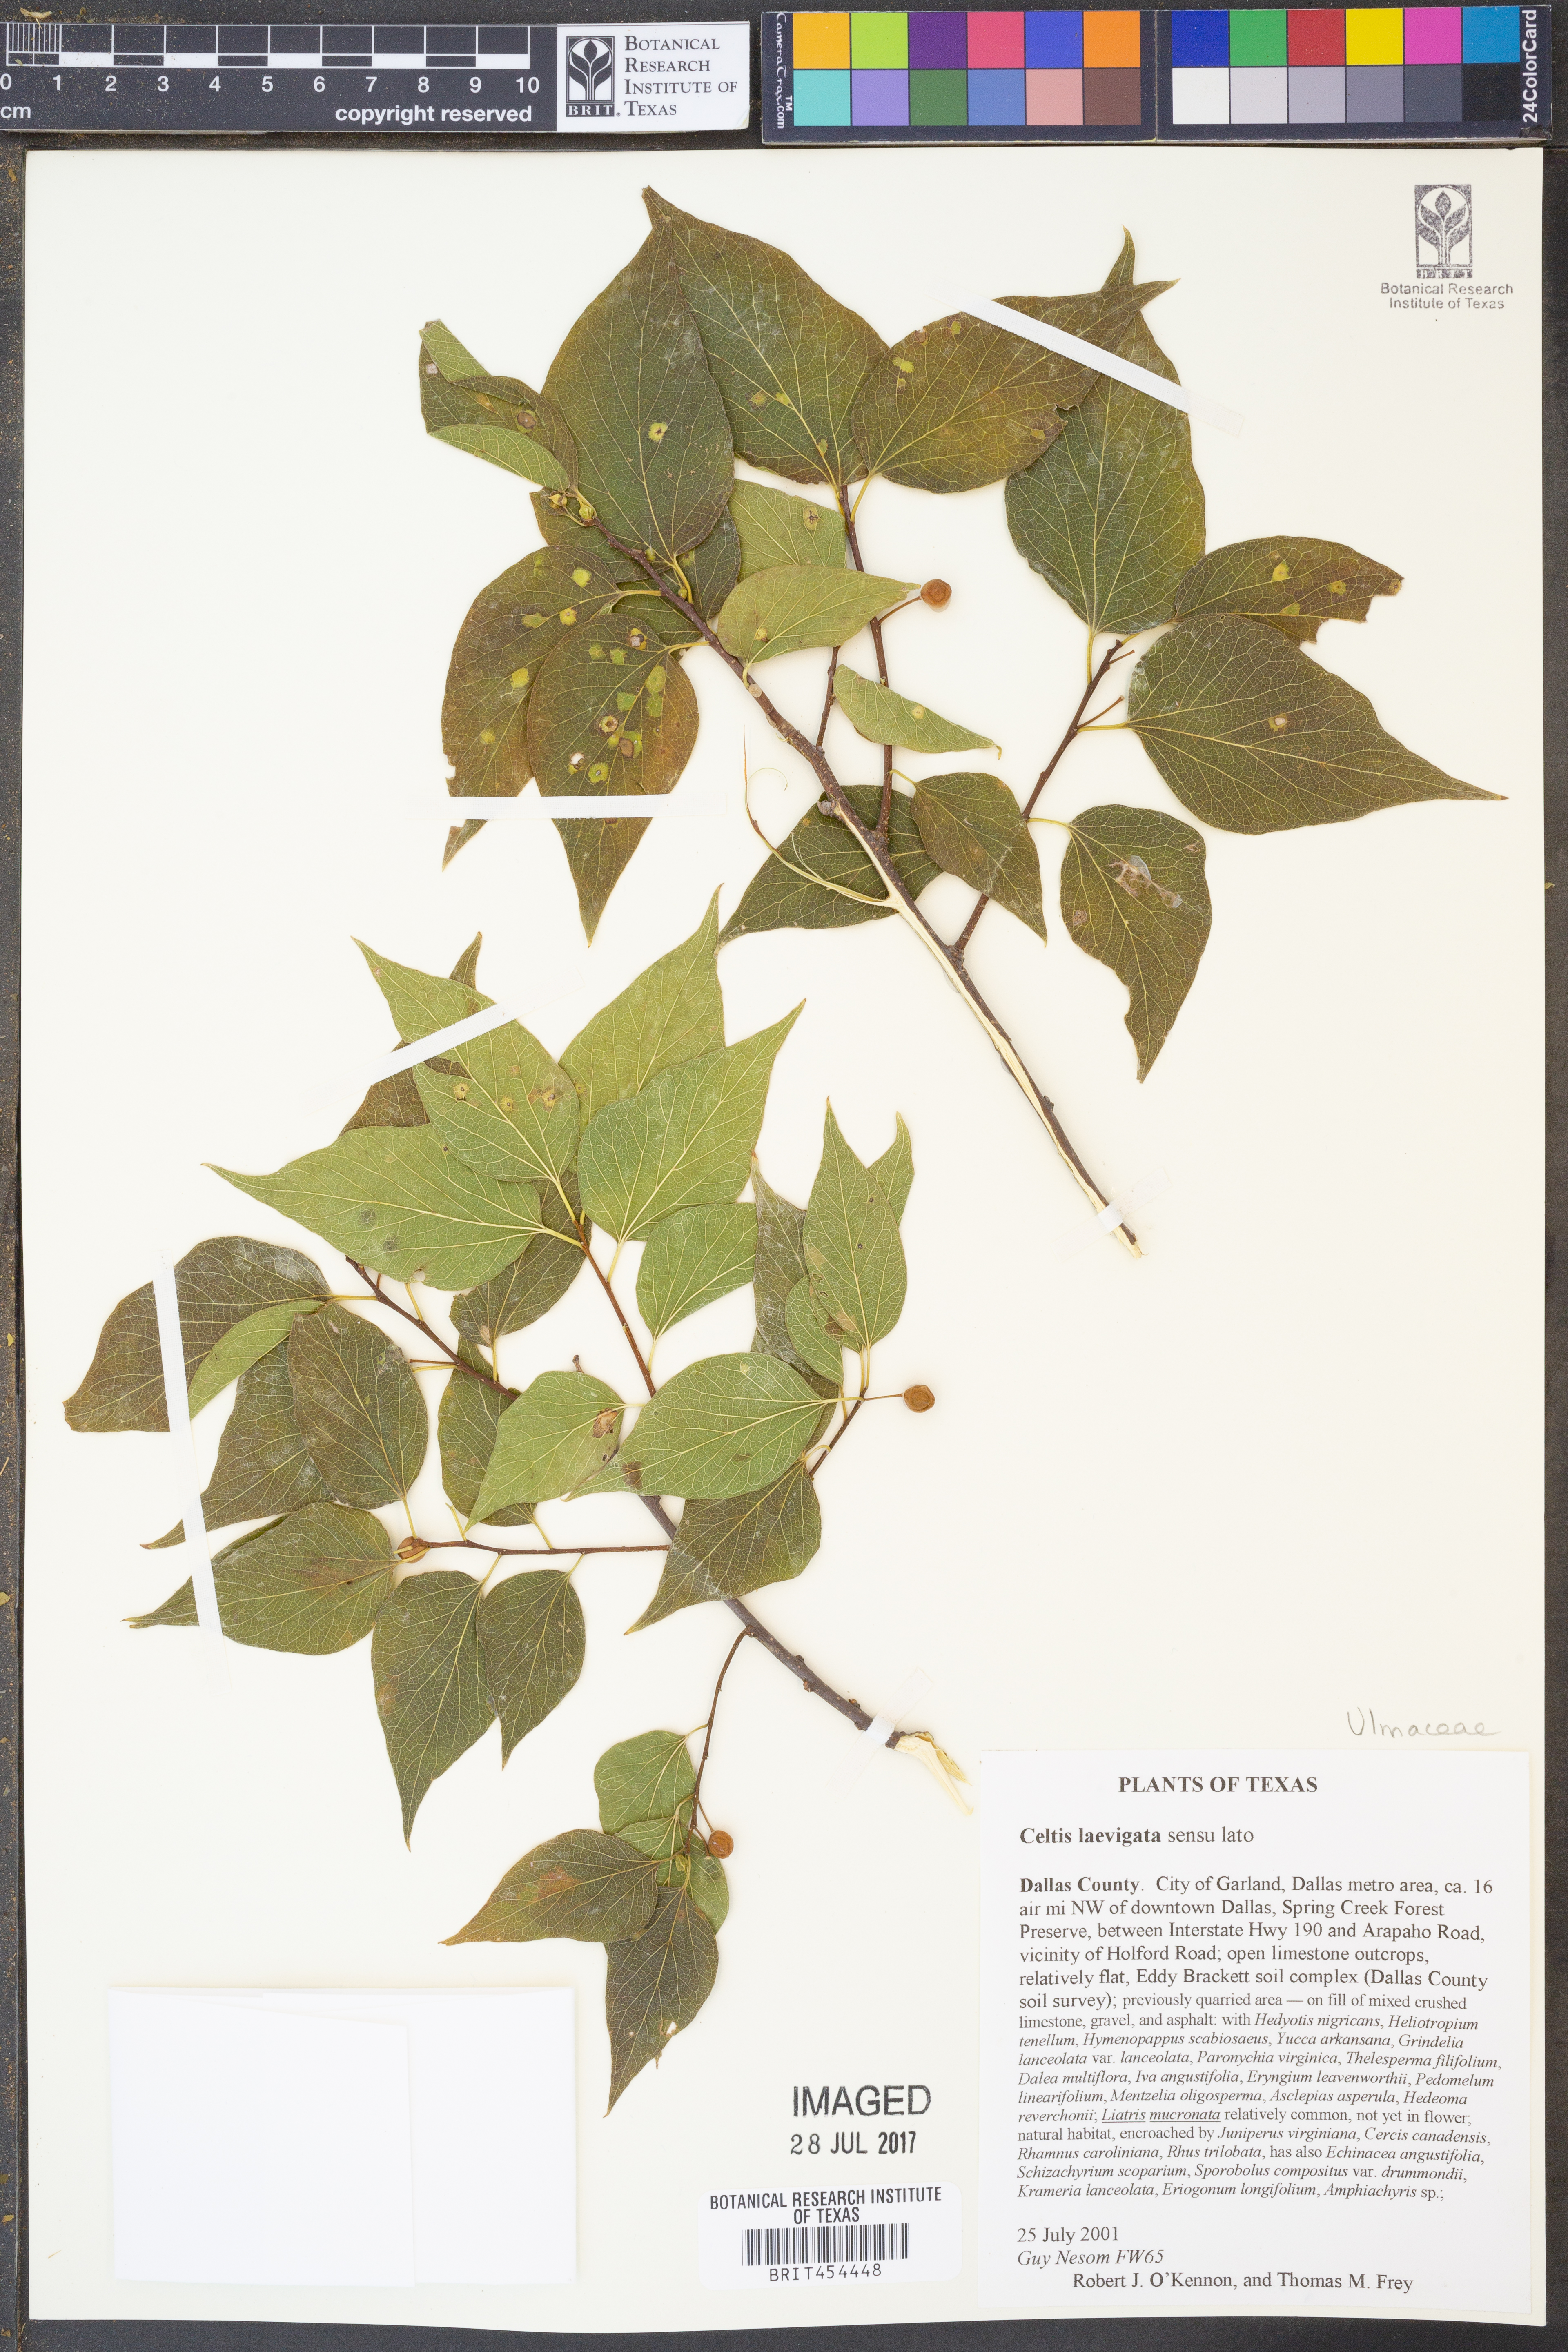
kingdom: Plantae
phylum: Tracheophyta
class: Magnoliopsida
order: Rosales
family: Cannabaceae
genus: Celtis
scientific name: Celtis laevigata
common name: Sugarberry
